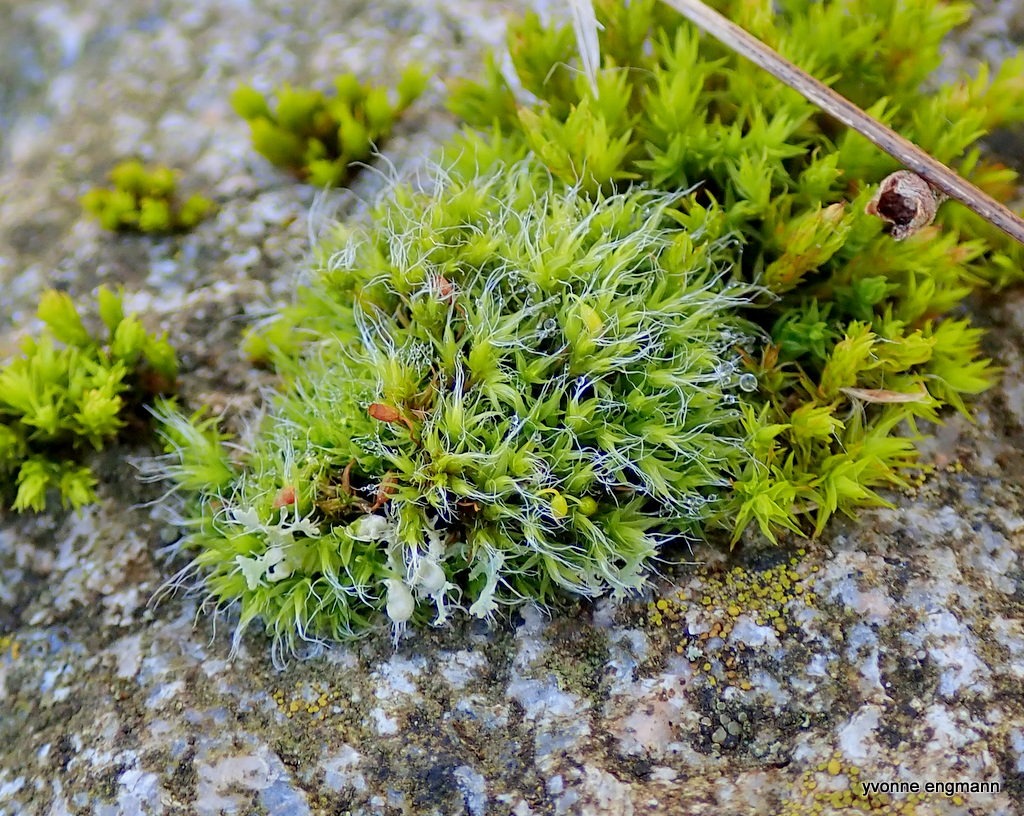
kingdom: Plantae
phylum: Bryophyta
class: Bryopsida
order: Grimmiales
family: Grimmiaceae
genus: Grimmia
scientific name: Grimmia pulvinata
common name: Pude-gråmos
